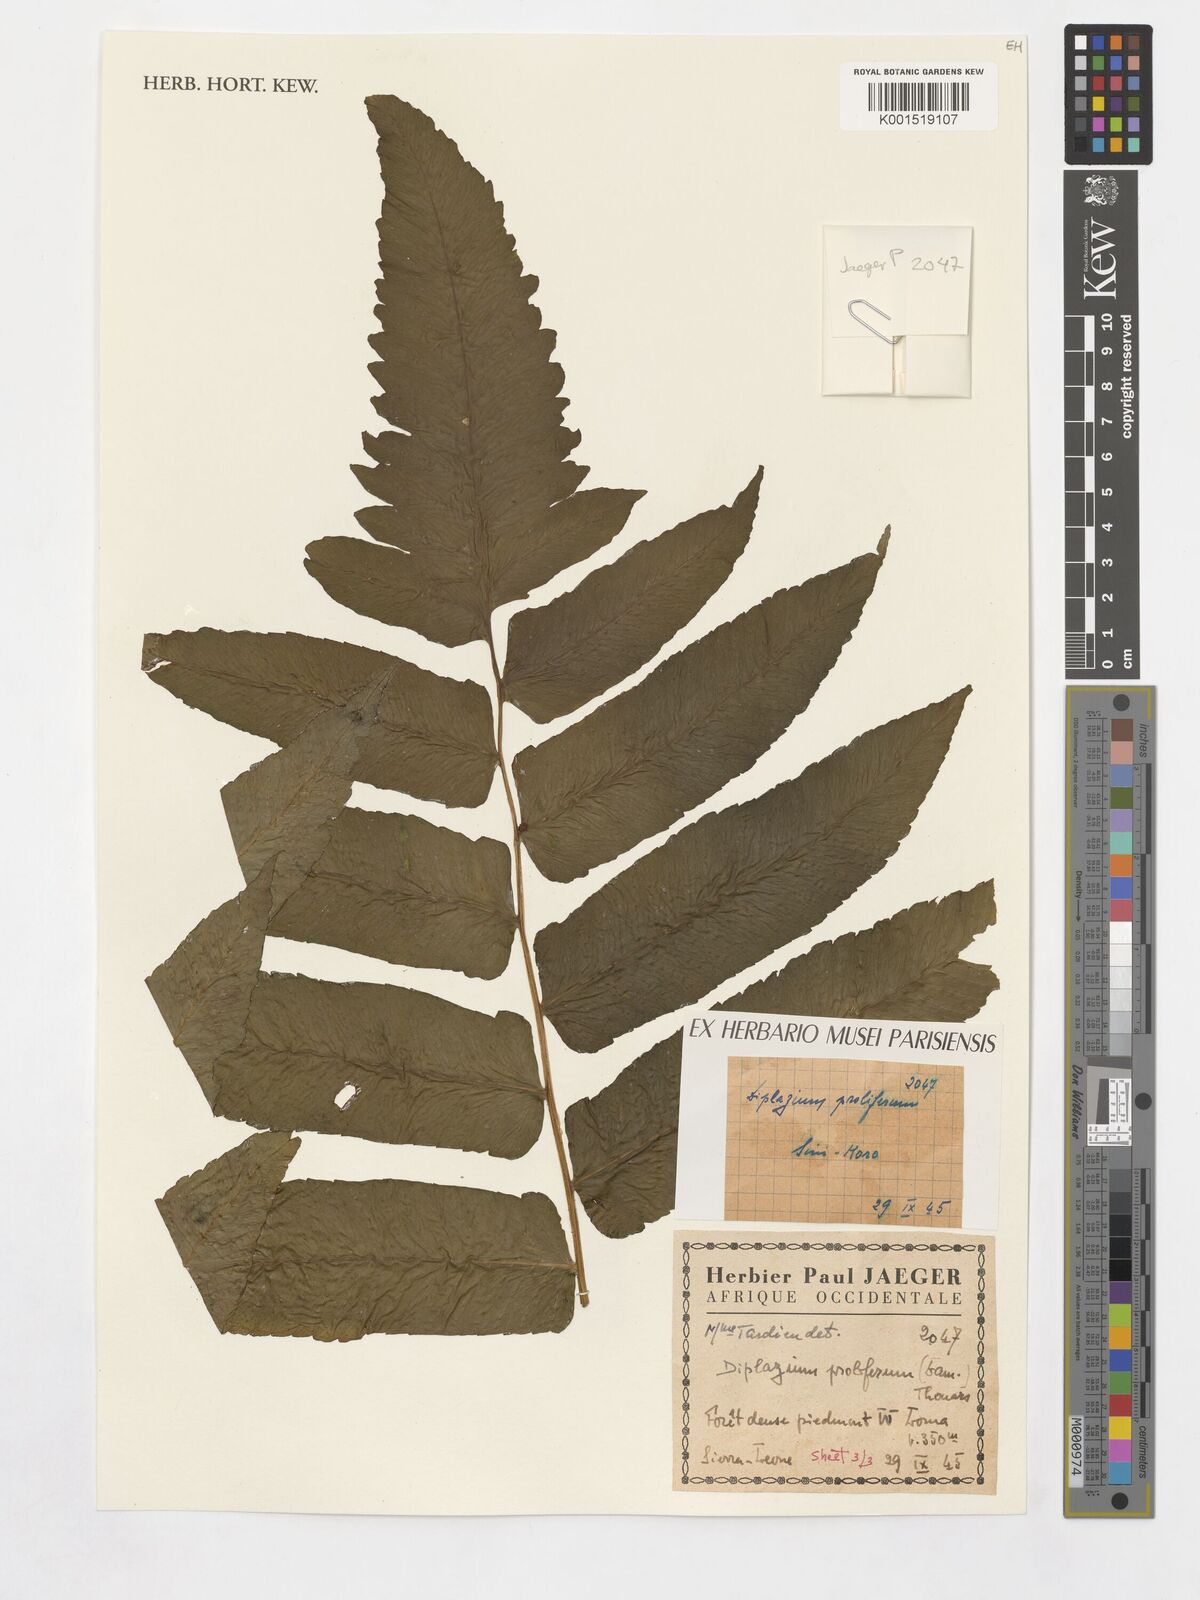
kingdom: Plantae
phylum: Tracheophyta
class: Polypodiopsida
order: Polypodiales
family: Athyriaceae
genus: Diplazium
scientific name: Diplazium proliferum
